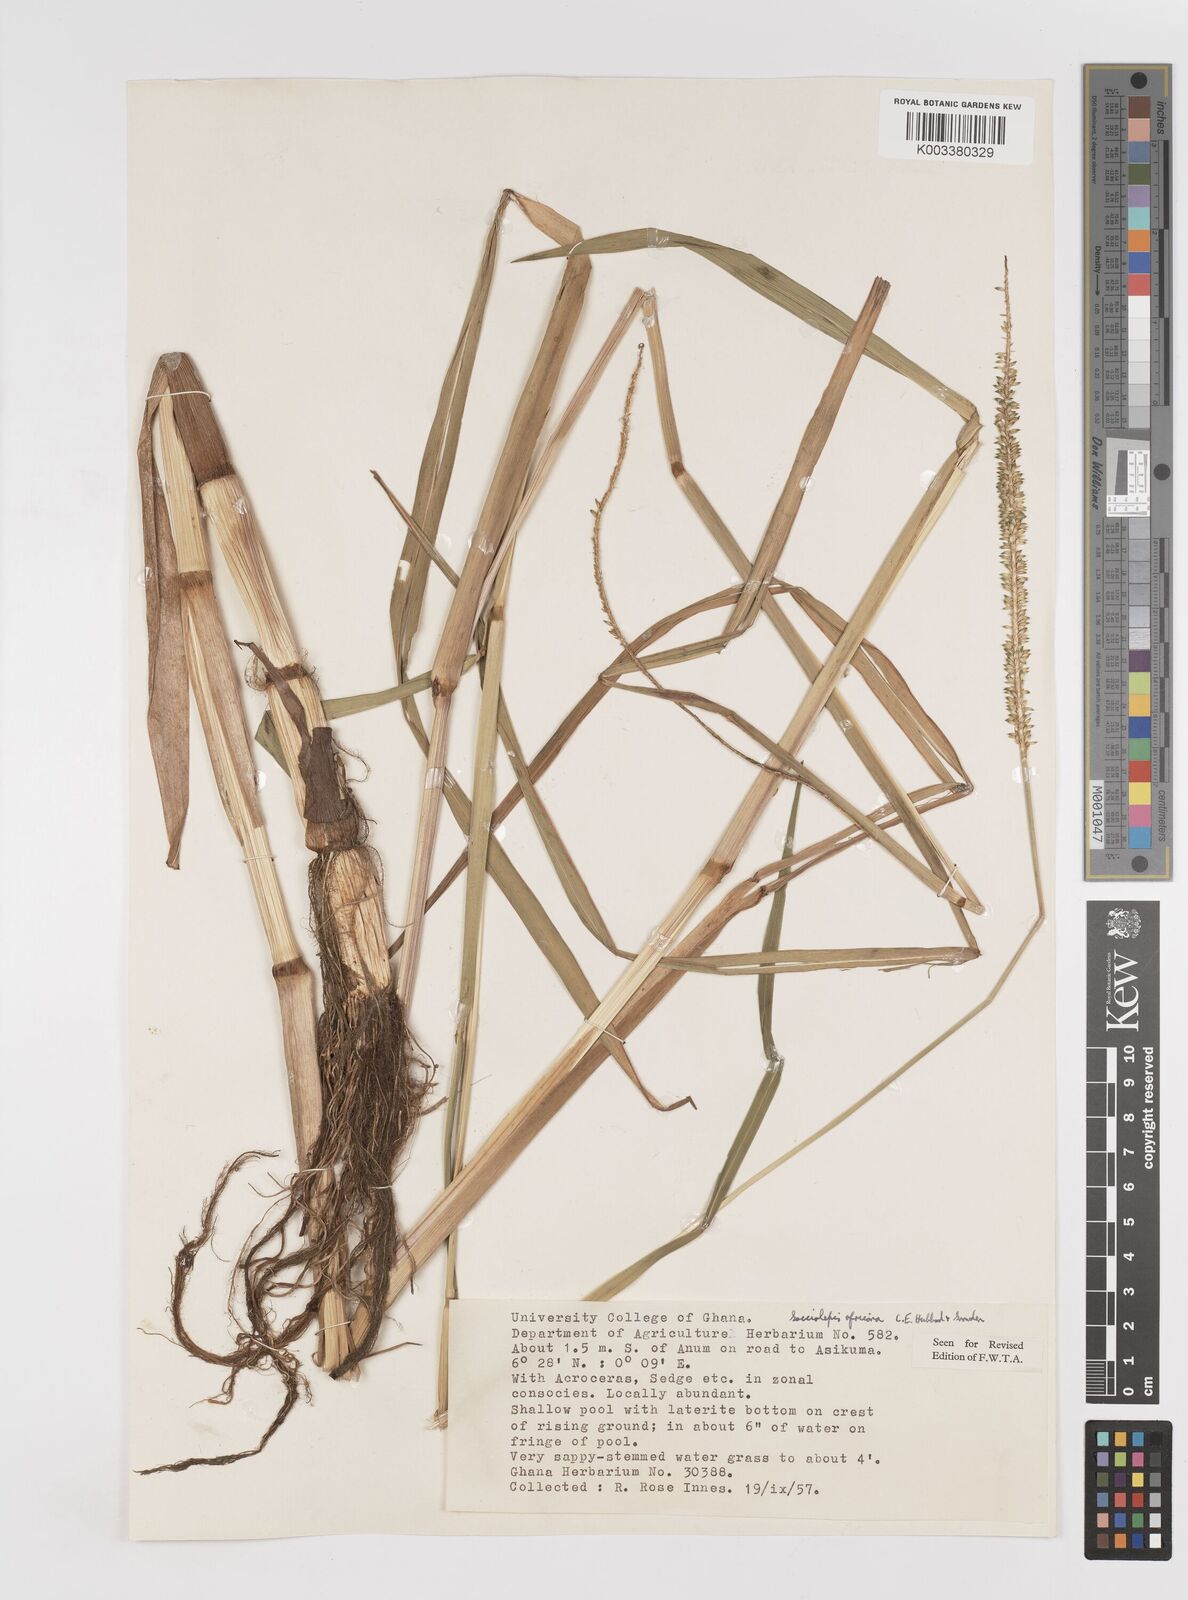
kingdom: Plantae
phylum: Tracheophyta
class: Liliopsida
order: Poales
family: Poaceae
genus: Sacciolepis
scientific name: Sacciolepis africana
